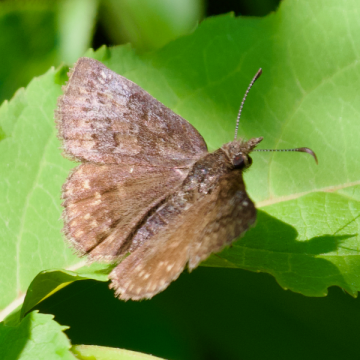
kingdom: Animalia
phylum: Arthropoda
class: Insecta
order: Lepidoptera
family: Hesperiidae
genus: Erynnis
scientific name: Erynnis icelus
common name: Dreamy Duskywing
